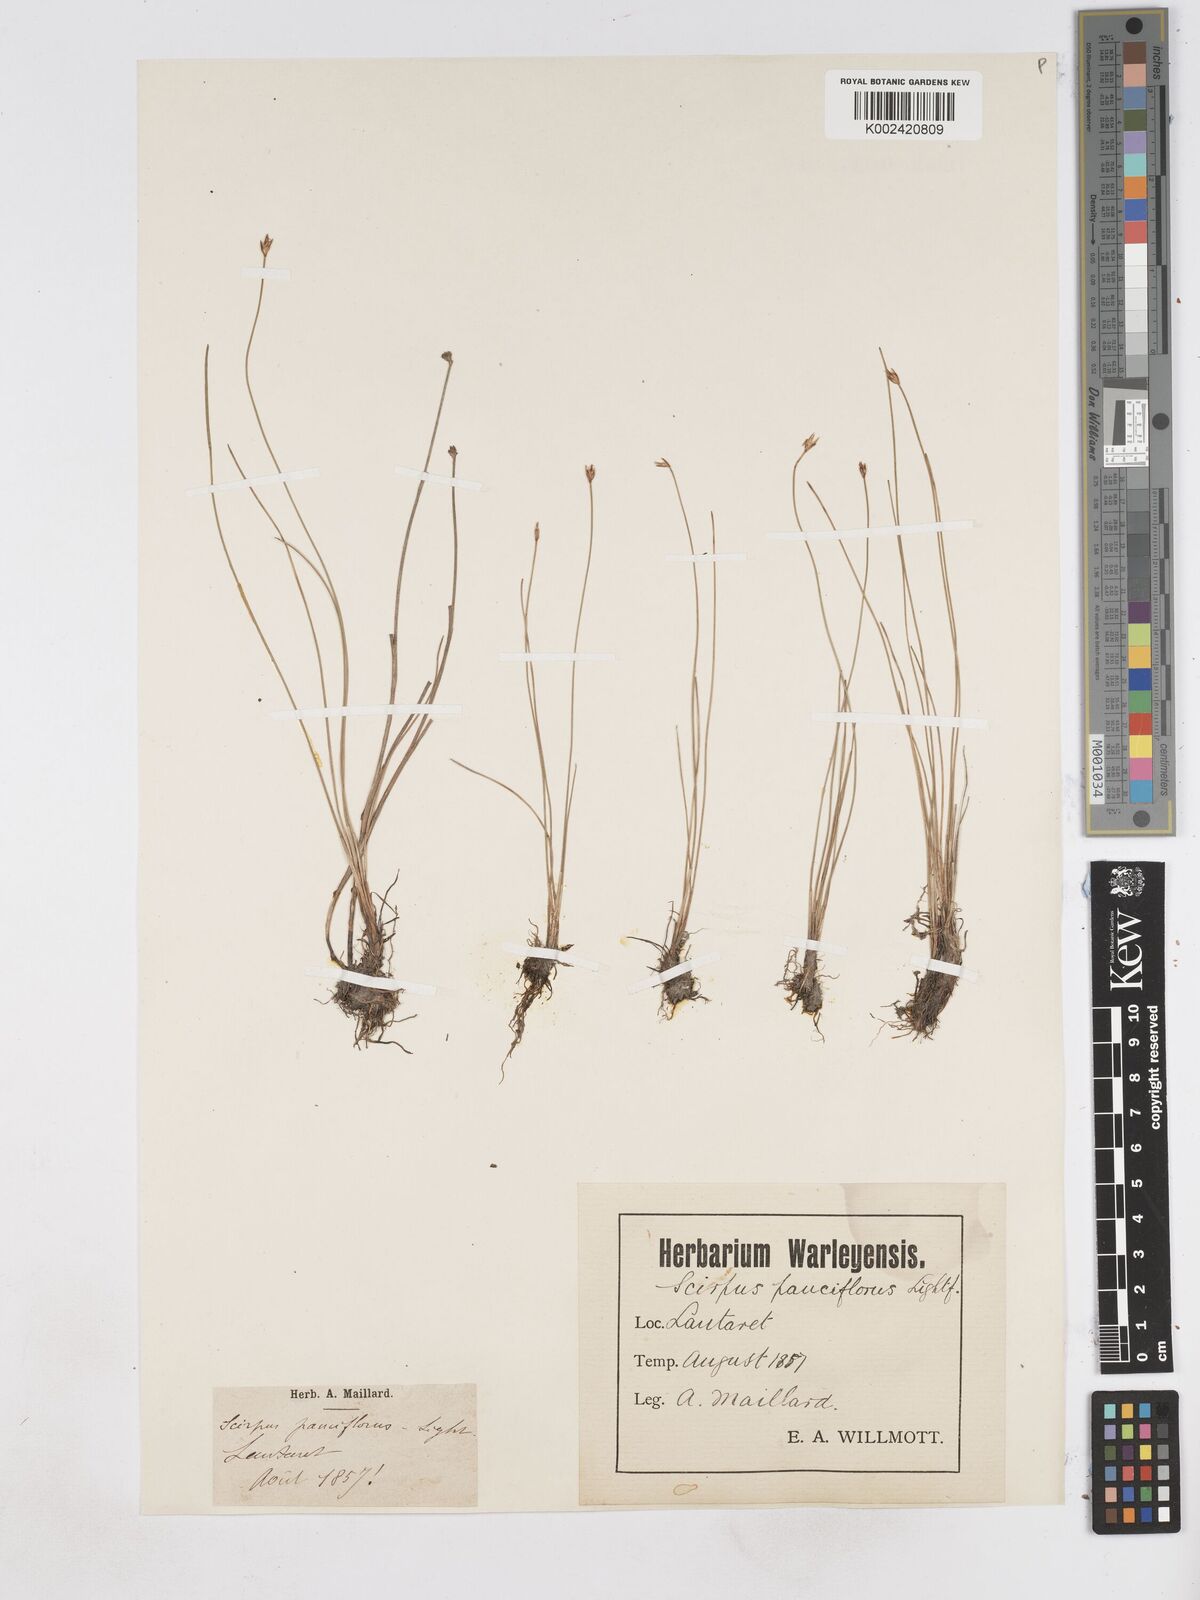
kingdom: Plantae
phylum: Tracheophyta
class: Liliopsida
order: Poales
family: Cyperaceae
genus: Eleocharis
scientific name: Eleocharis quinqueflora
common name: Few-flowered spike-rush
